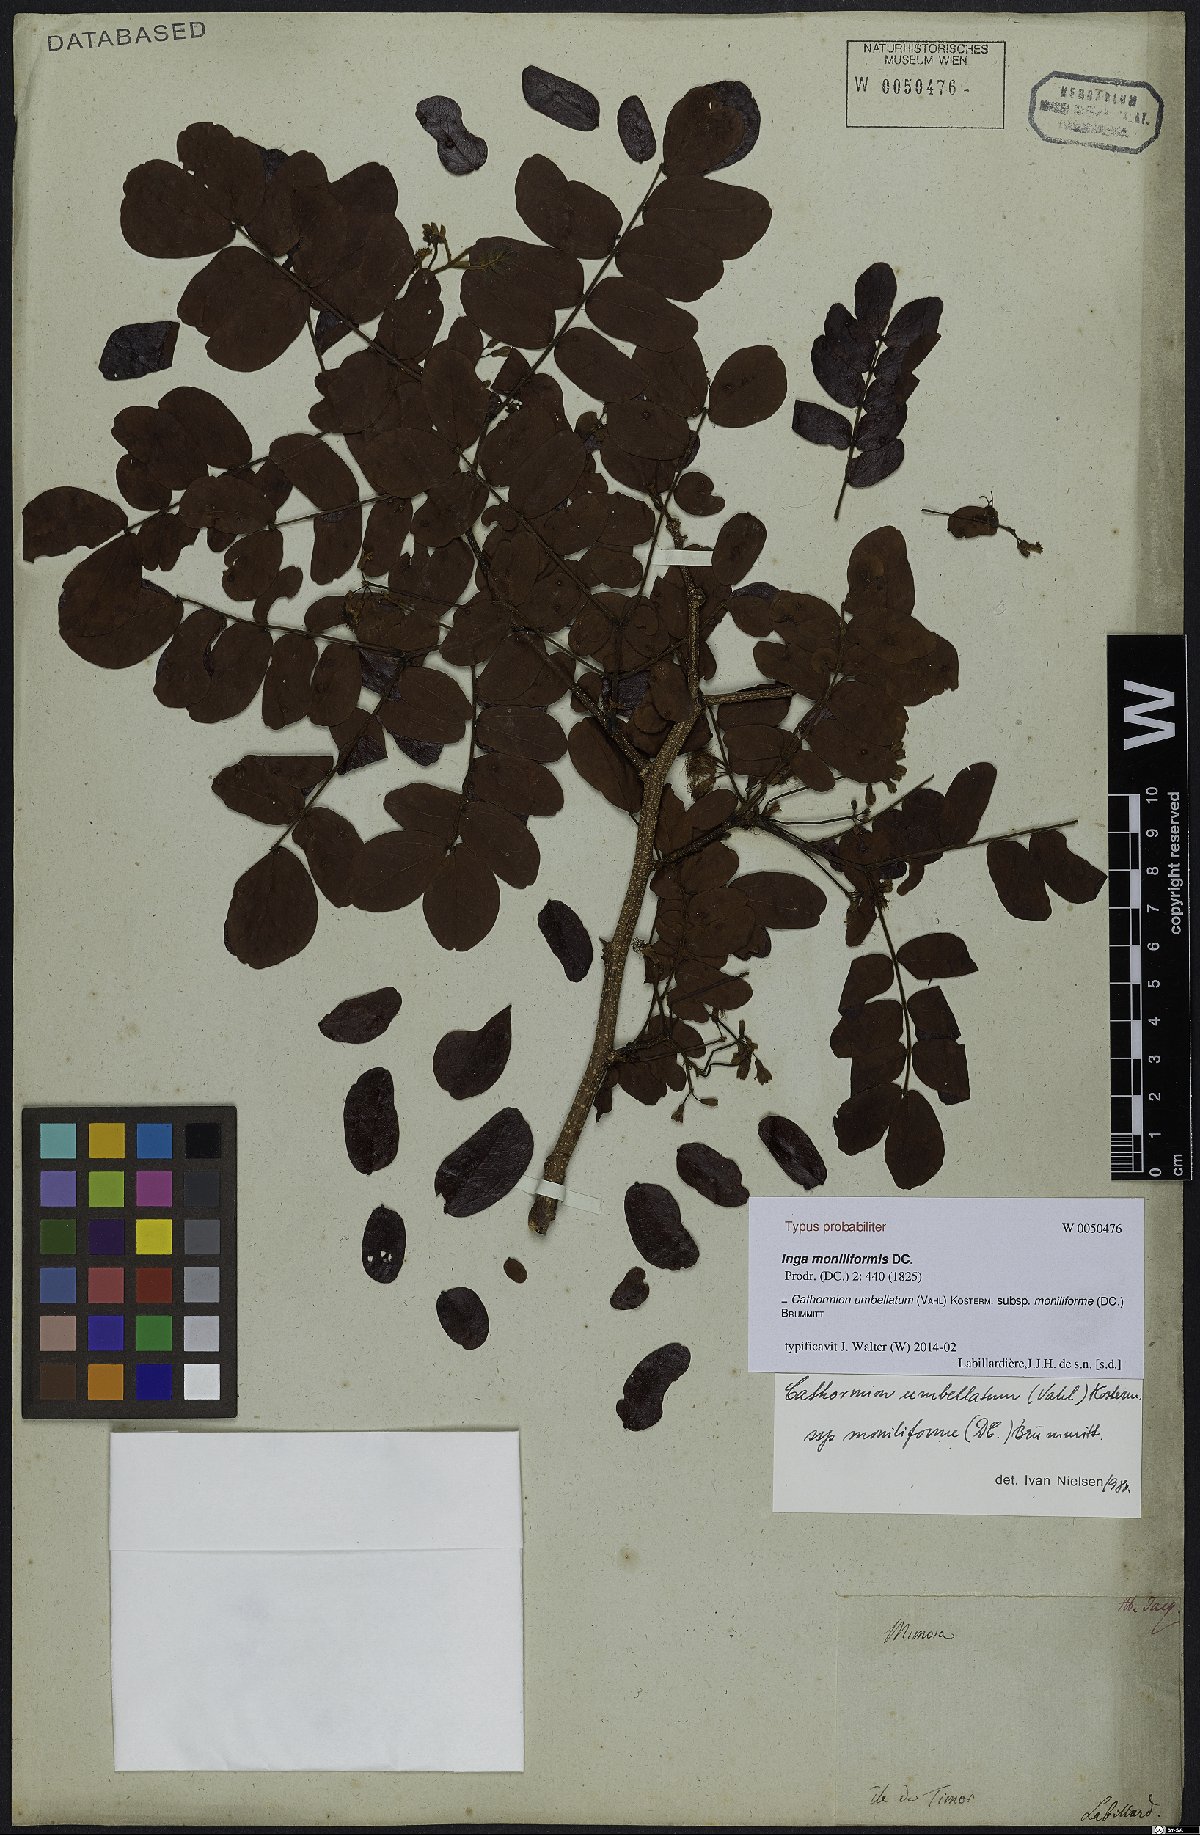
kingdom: Plantae
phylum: Tracheophyta
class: Magnoliopsida
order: Fabales
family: Fabaceae
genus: Cathormion
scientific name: Cathormion umbellatum
